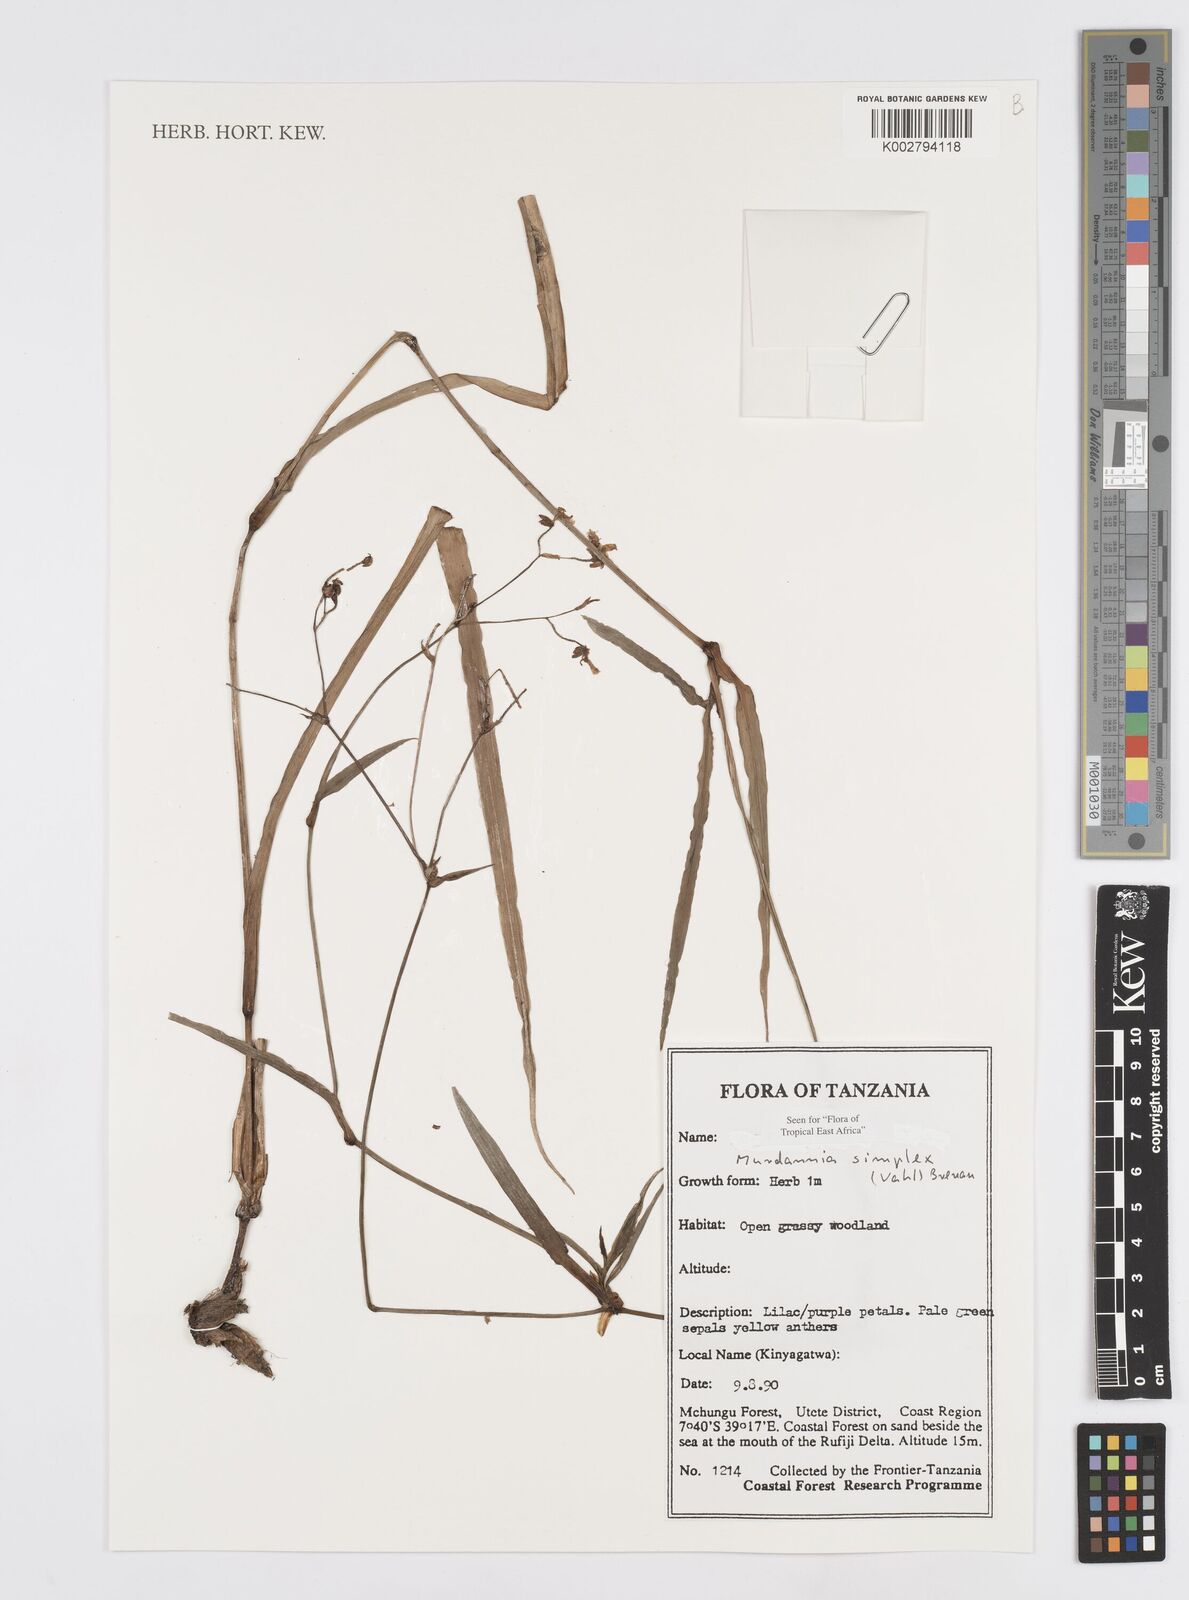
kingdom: Plantae
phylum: Tracheophyta
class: Liliopsida
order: Commelinales
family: Commelinaceae
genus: Murdannia
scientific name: Murdannia simplex
